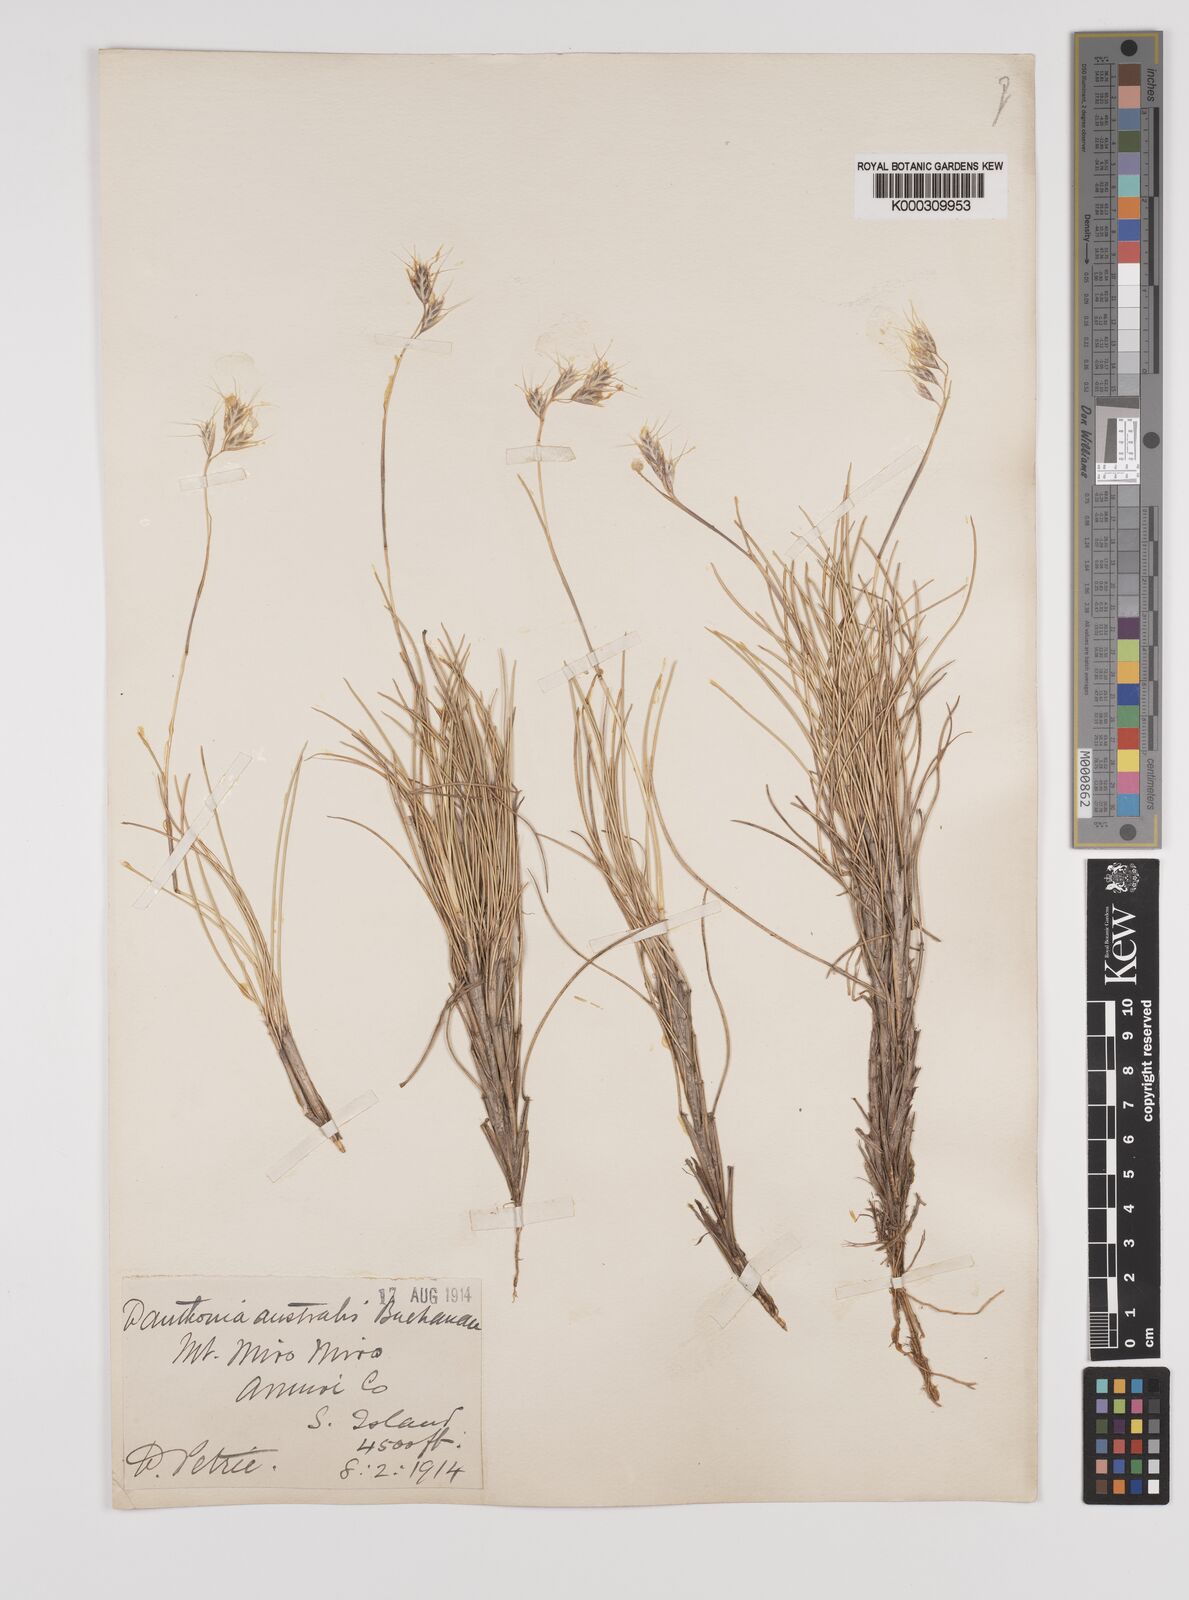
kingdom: Plantae
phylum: Tracheophyta
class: Liliopsida
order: Poales
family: Poaceae
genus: Chionochloa
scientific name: Chionochloa australis
